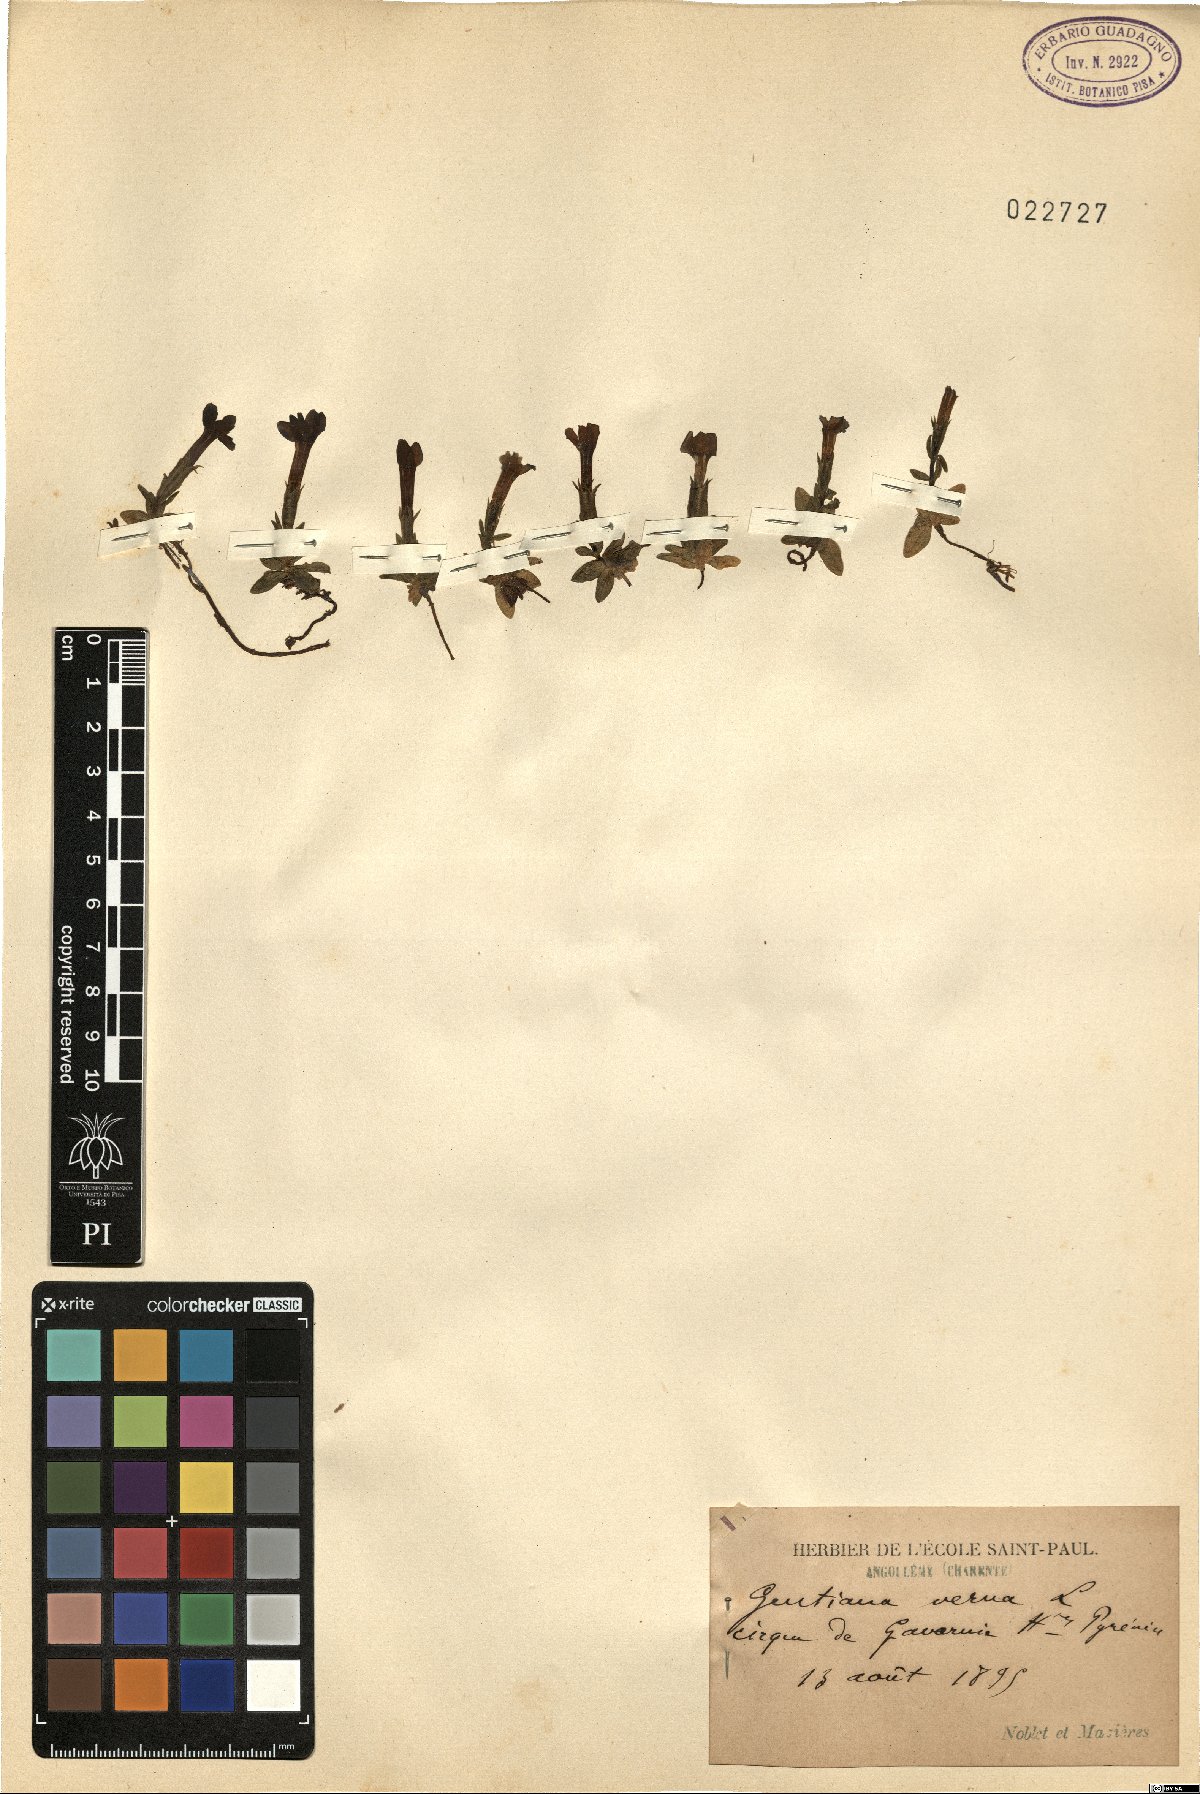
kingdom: Plantae
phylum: Tracheophyta
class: Magnoliopsida
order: Gentianales
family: Gentianaceae
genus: Gentiana
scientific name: Gentiana verna
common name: Spring gentian
